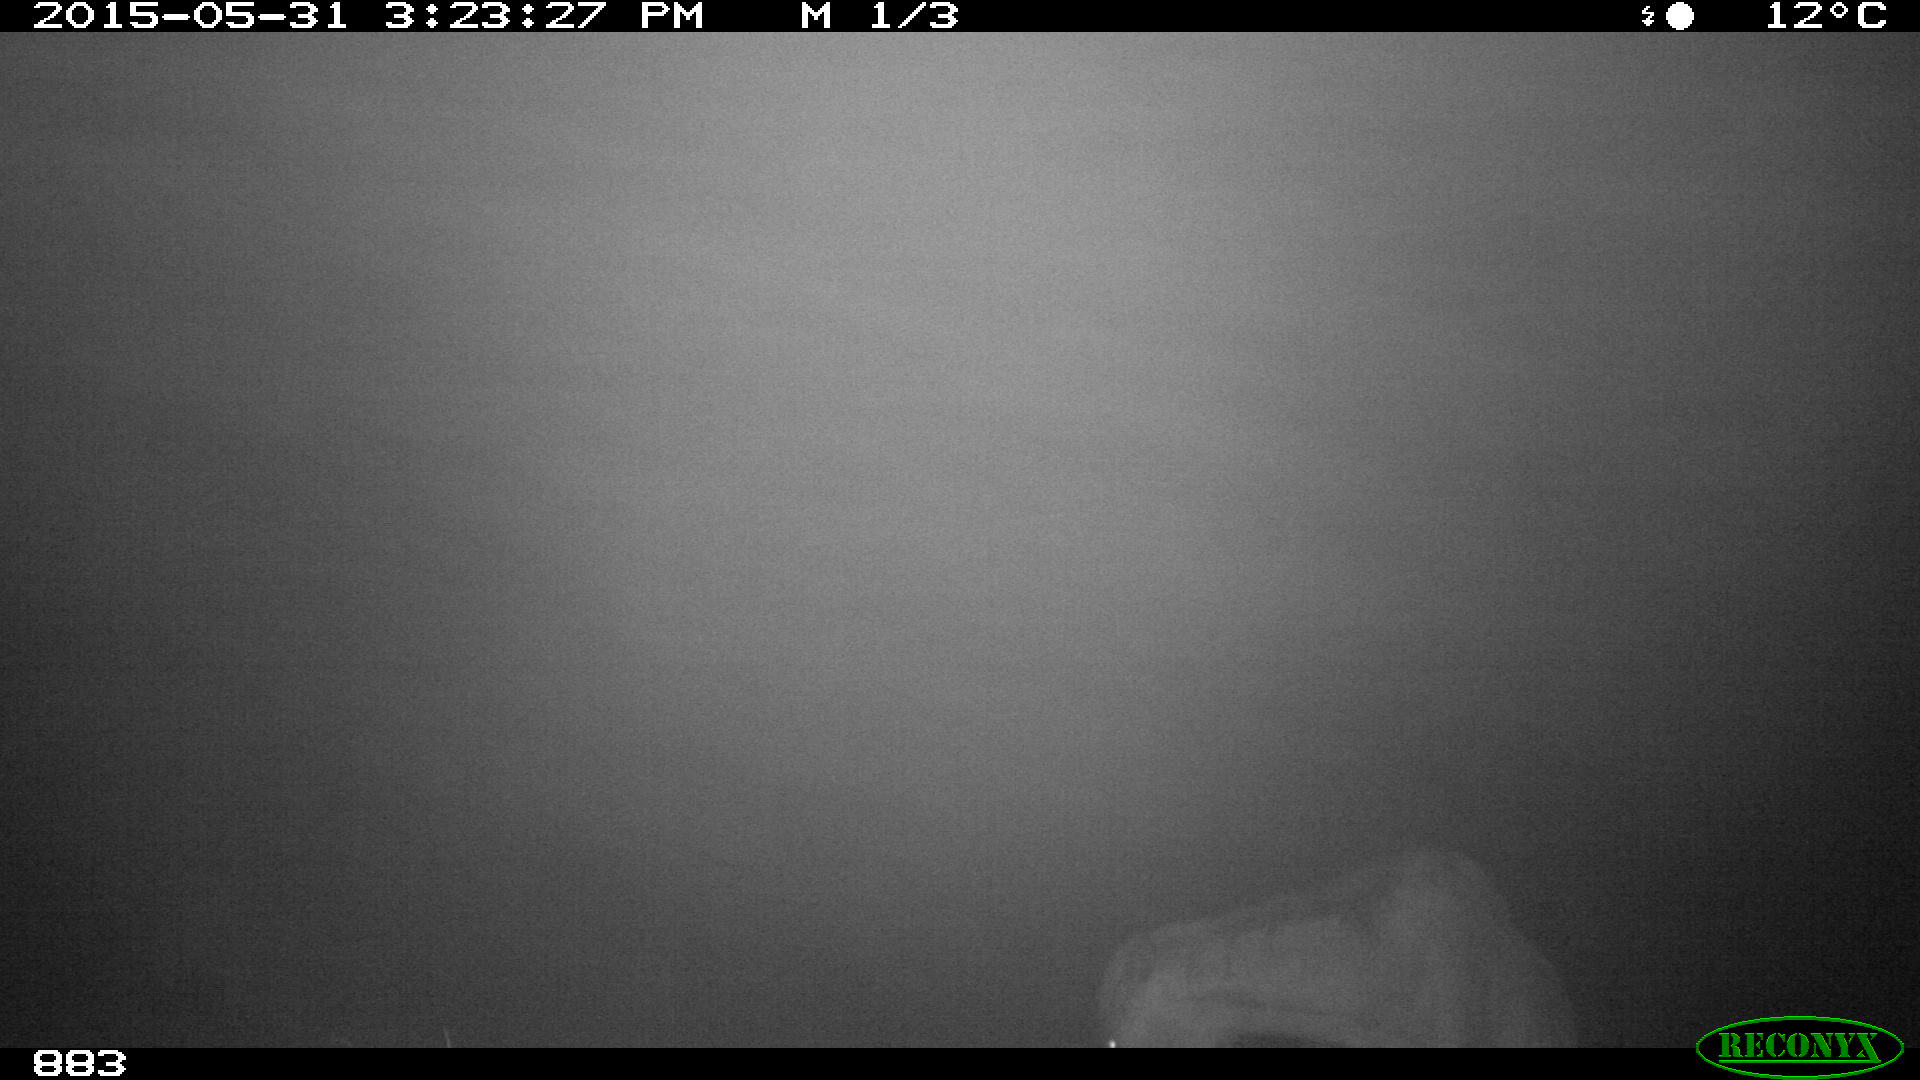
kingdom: Animalia
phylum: Chordata
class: Mammalia
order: Perissodactyla
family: Equidae
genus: Equus
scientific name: Equus caballus
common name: Horse
